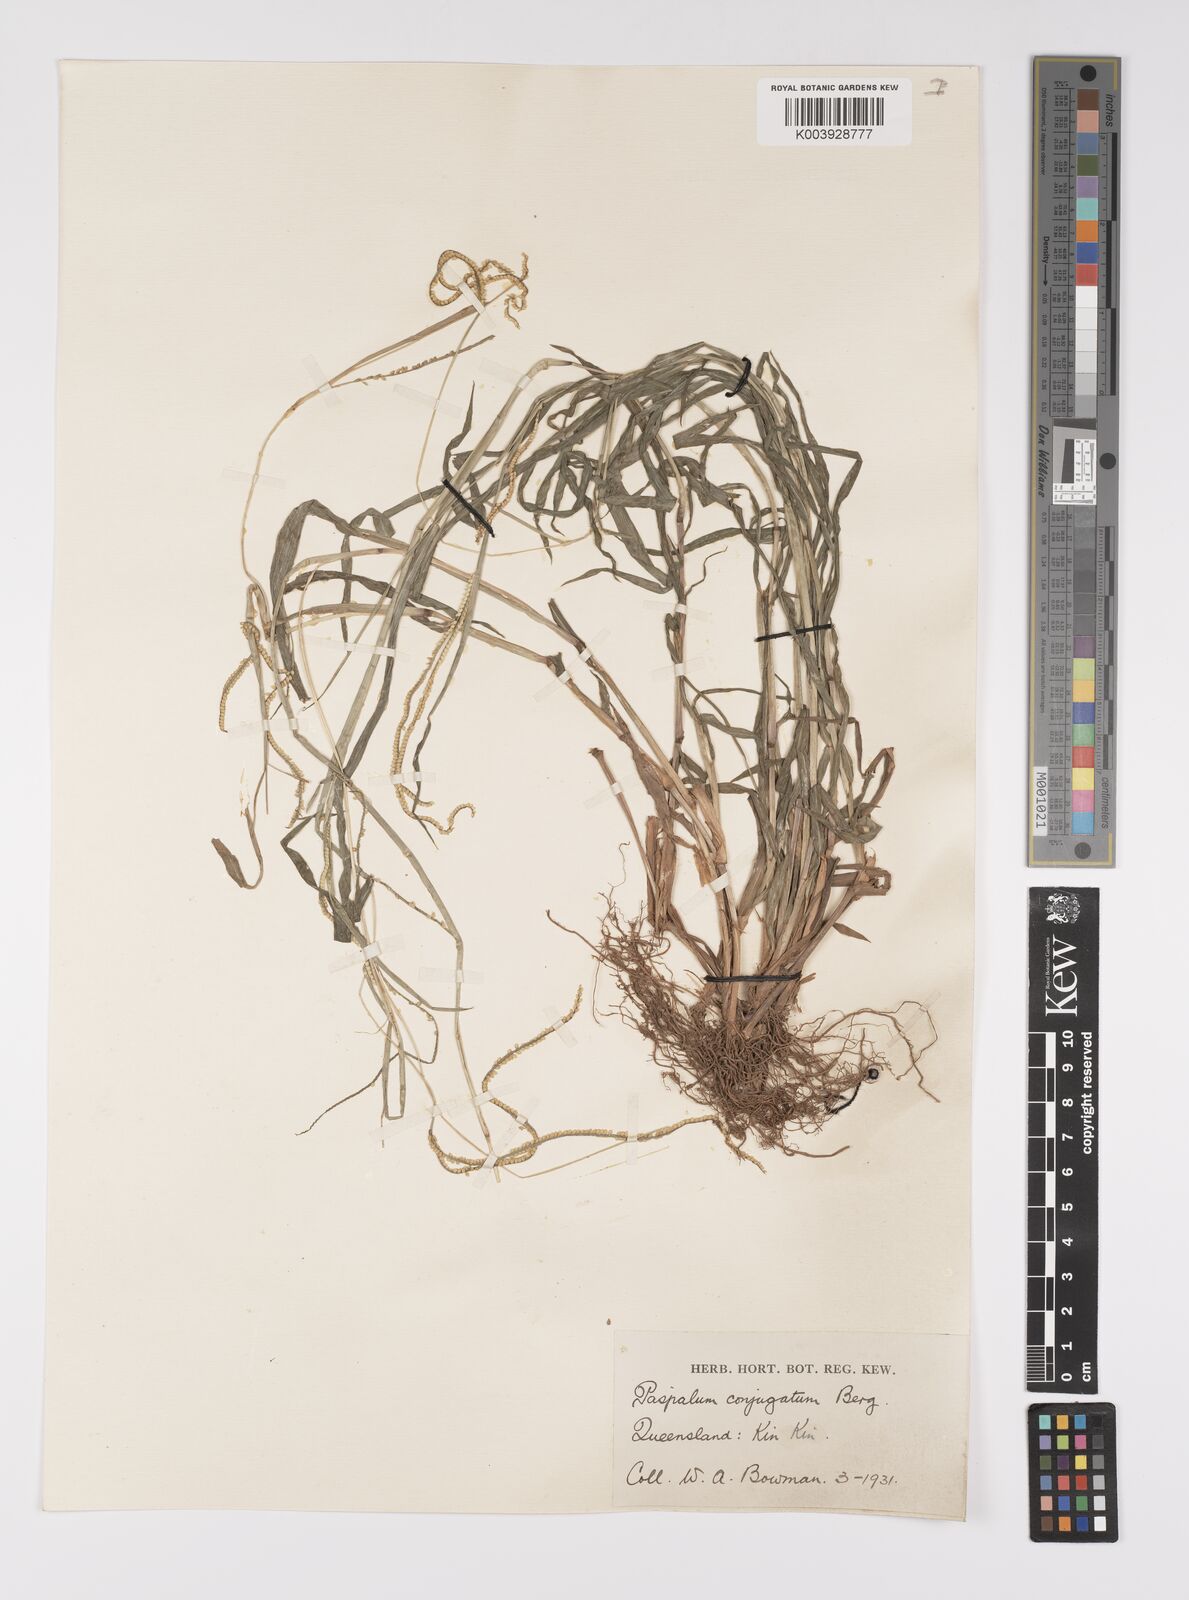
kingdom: Plantae
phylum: Tracheophyta
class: Liliopsida
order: Poales
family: Poaceae
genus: Paspalum
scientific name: Paspalum conjugatum
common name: Hilograss
